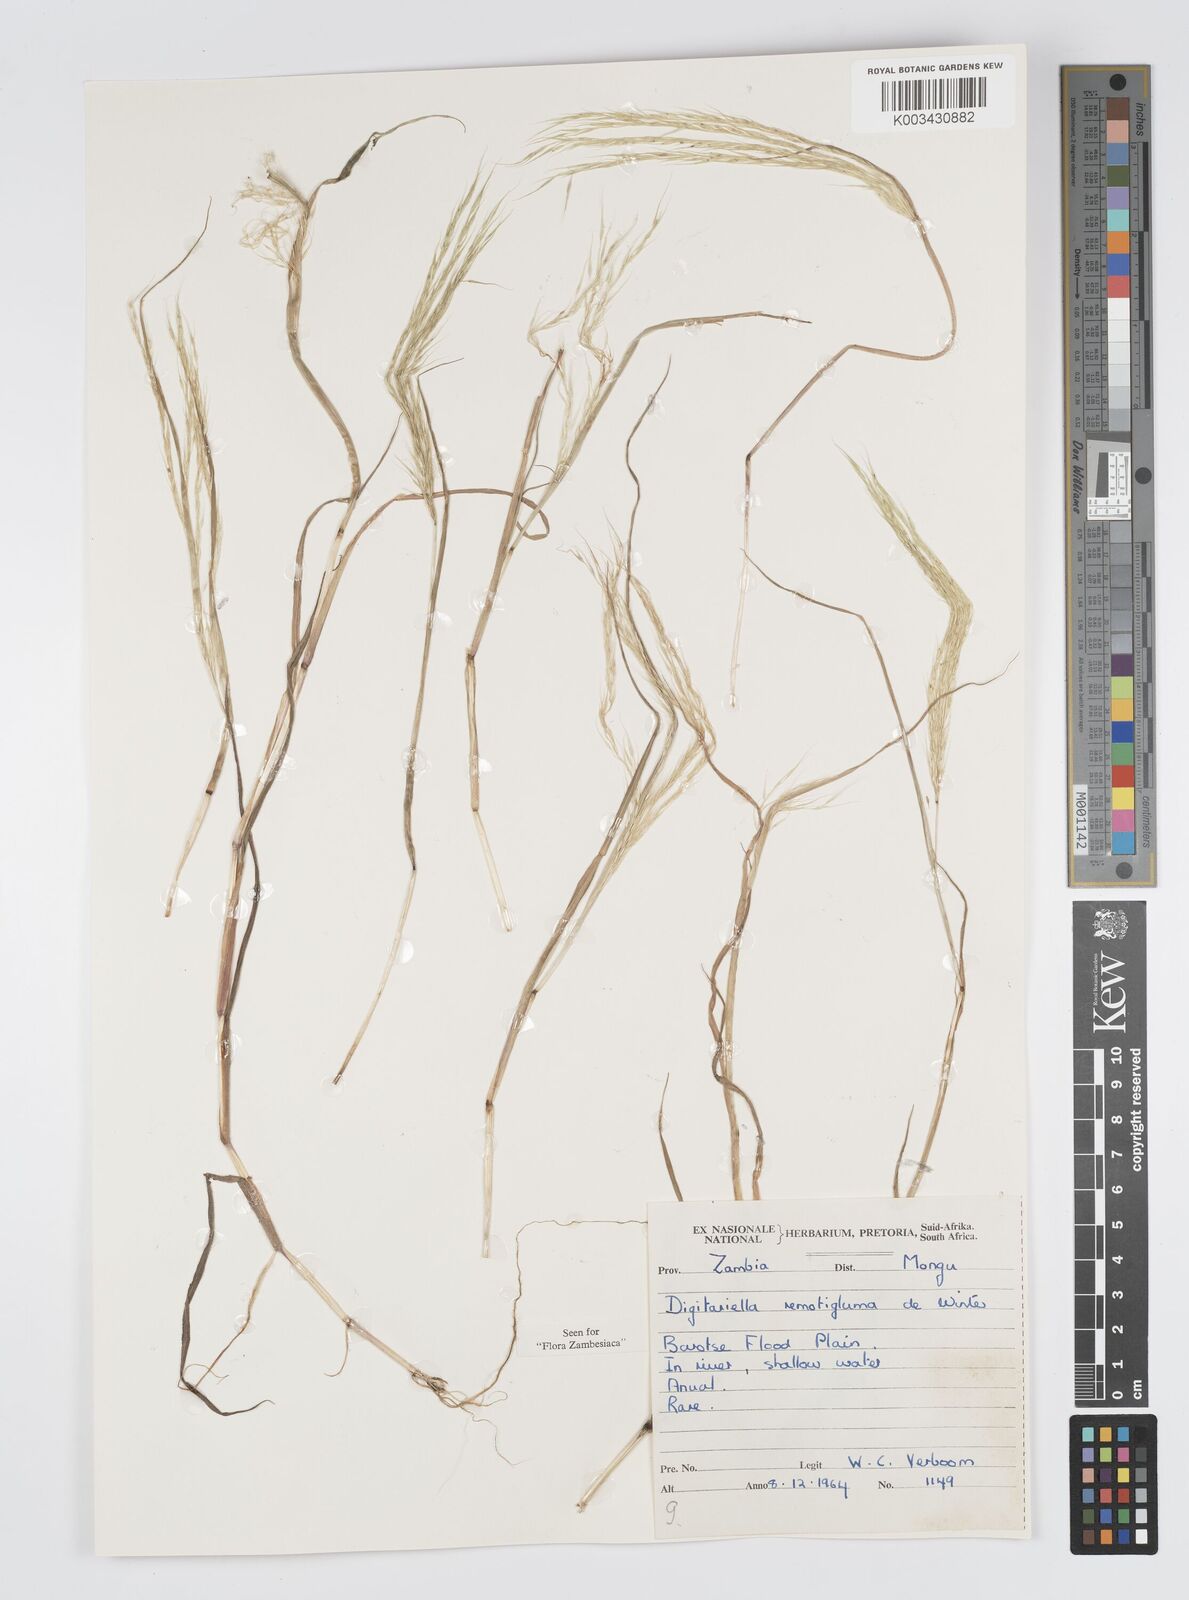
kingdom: Plantae
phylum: Tracheophyta
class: Liliopsida
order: Poales
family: Poaceae
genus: Digitaria
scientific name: Digitaria remotigluma
